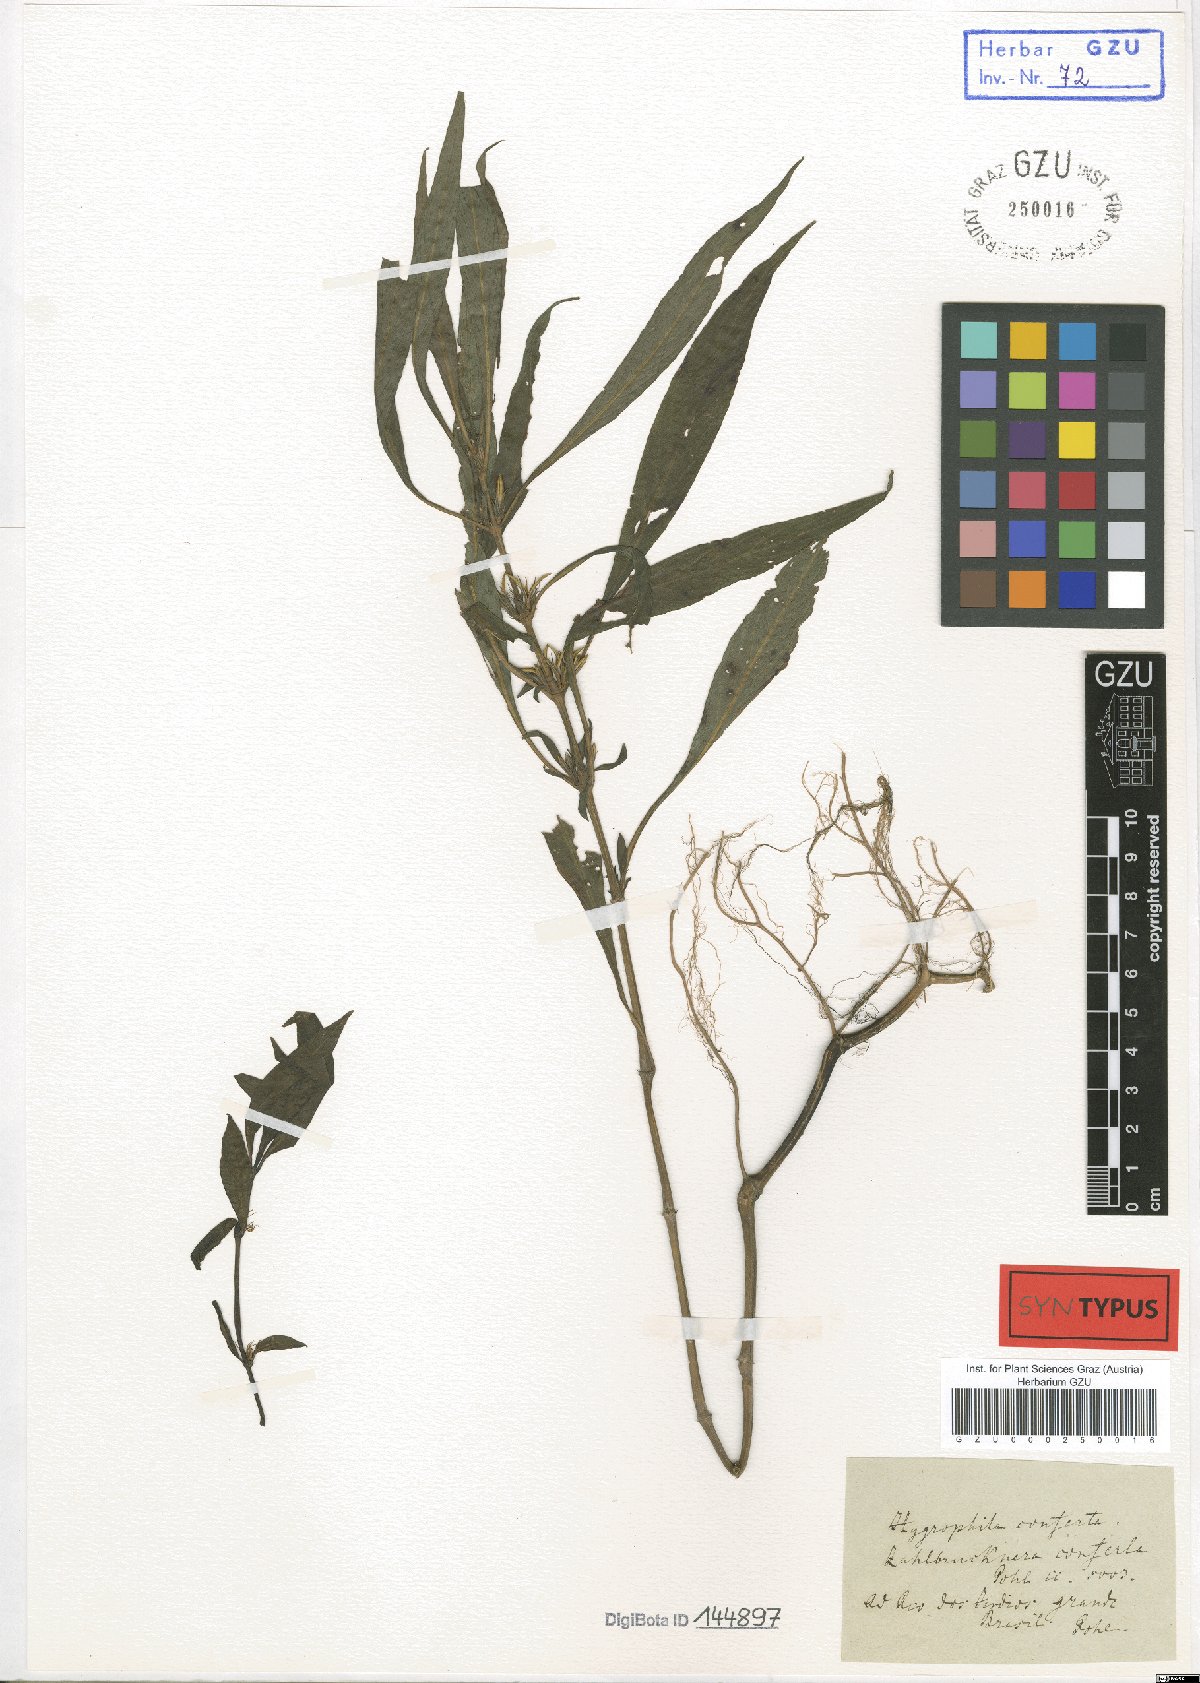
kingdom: Plantae
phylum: Tracheophyta
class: Magnoliopsida
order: Lamiales
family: Acanthaceae
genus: Hygrophila
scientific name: Hygrophila costata
